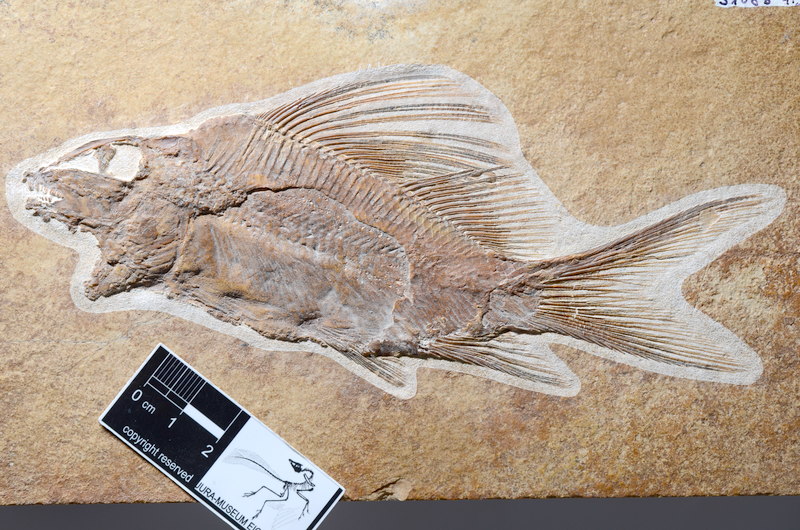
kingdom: Animalia
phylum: Chordata
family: Macrosemiidae
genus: Propterus
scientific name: Propterus elongatus
